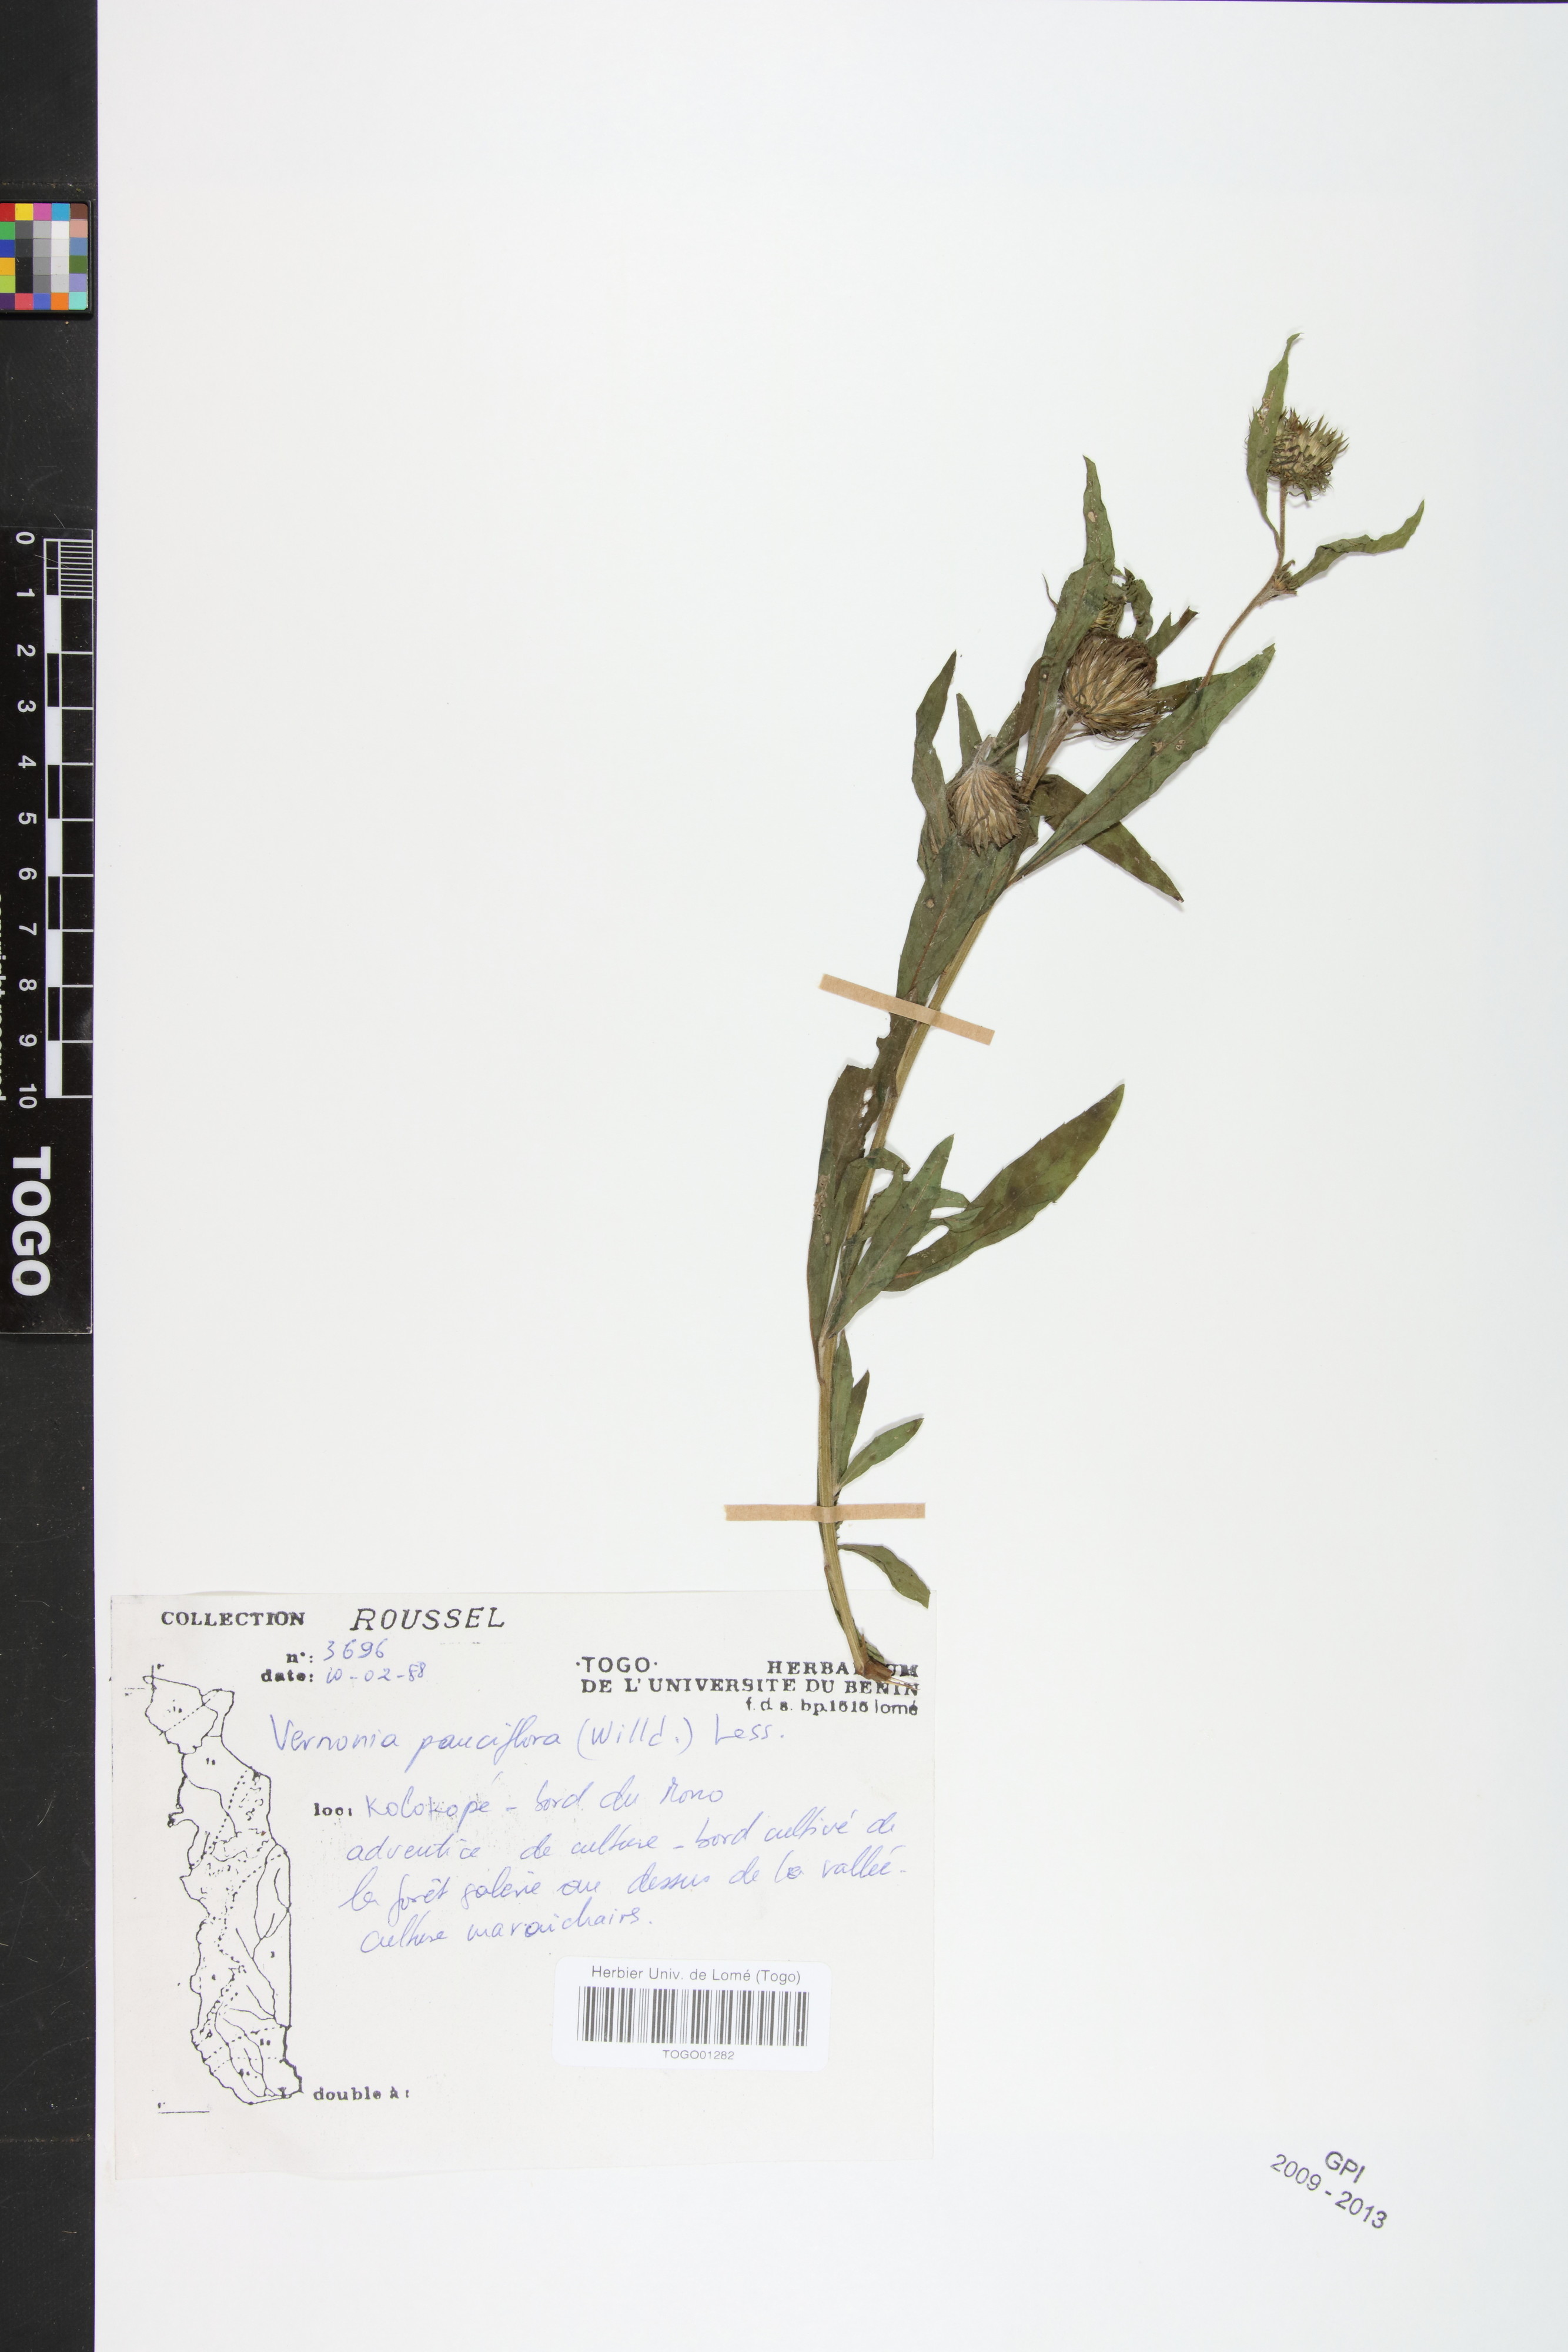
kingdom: Plantae
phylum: Tracheophyta
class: Magnoliopsida
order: Asterales
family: Asteraceae
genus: Vernonia
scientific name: Vernonia galamensis
